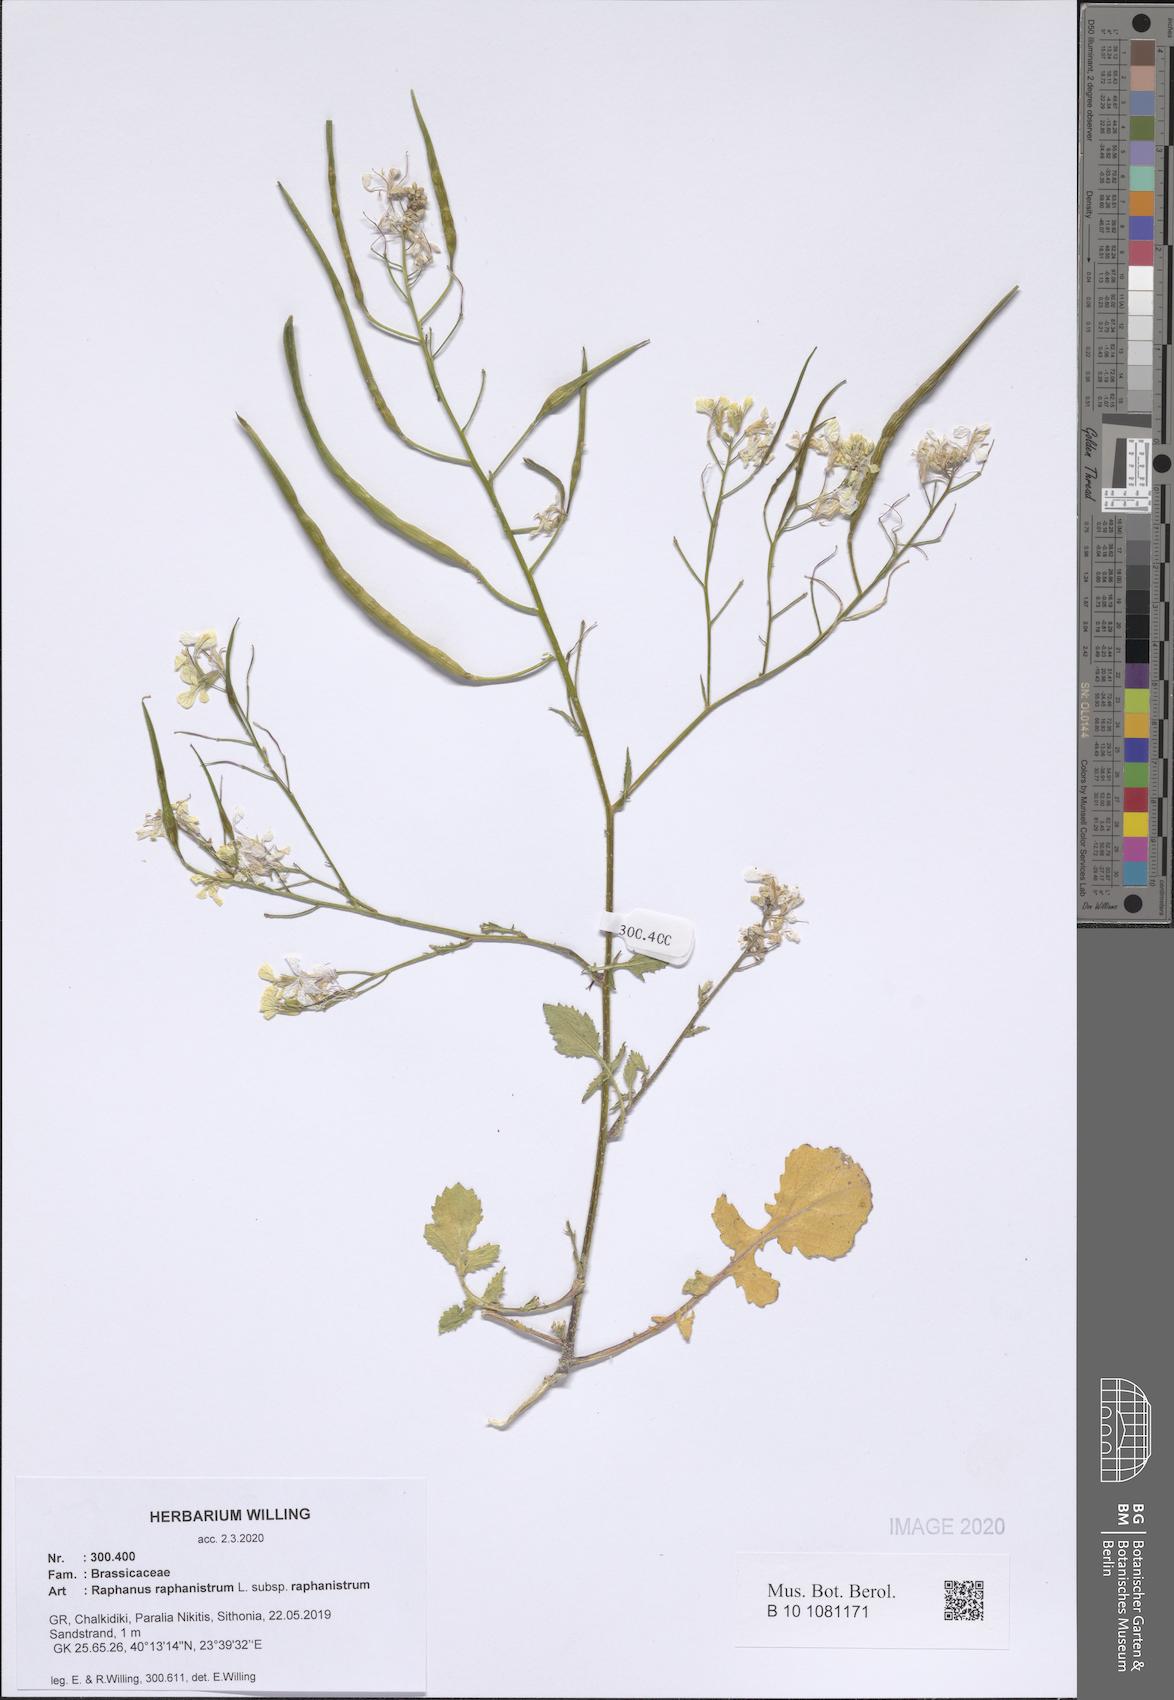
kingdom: Plantae
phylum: Tracheophyta
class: Magnoliopsida
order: Brassicales
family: Brassicaceae
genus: Raphanus
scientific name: Raphanus raphanistrum
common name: Wild radish
